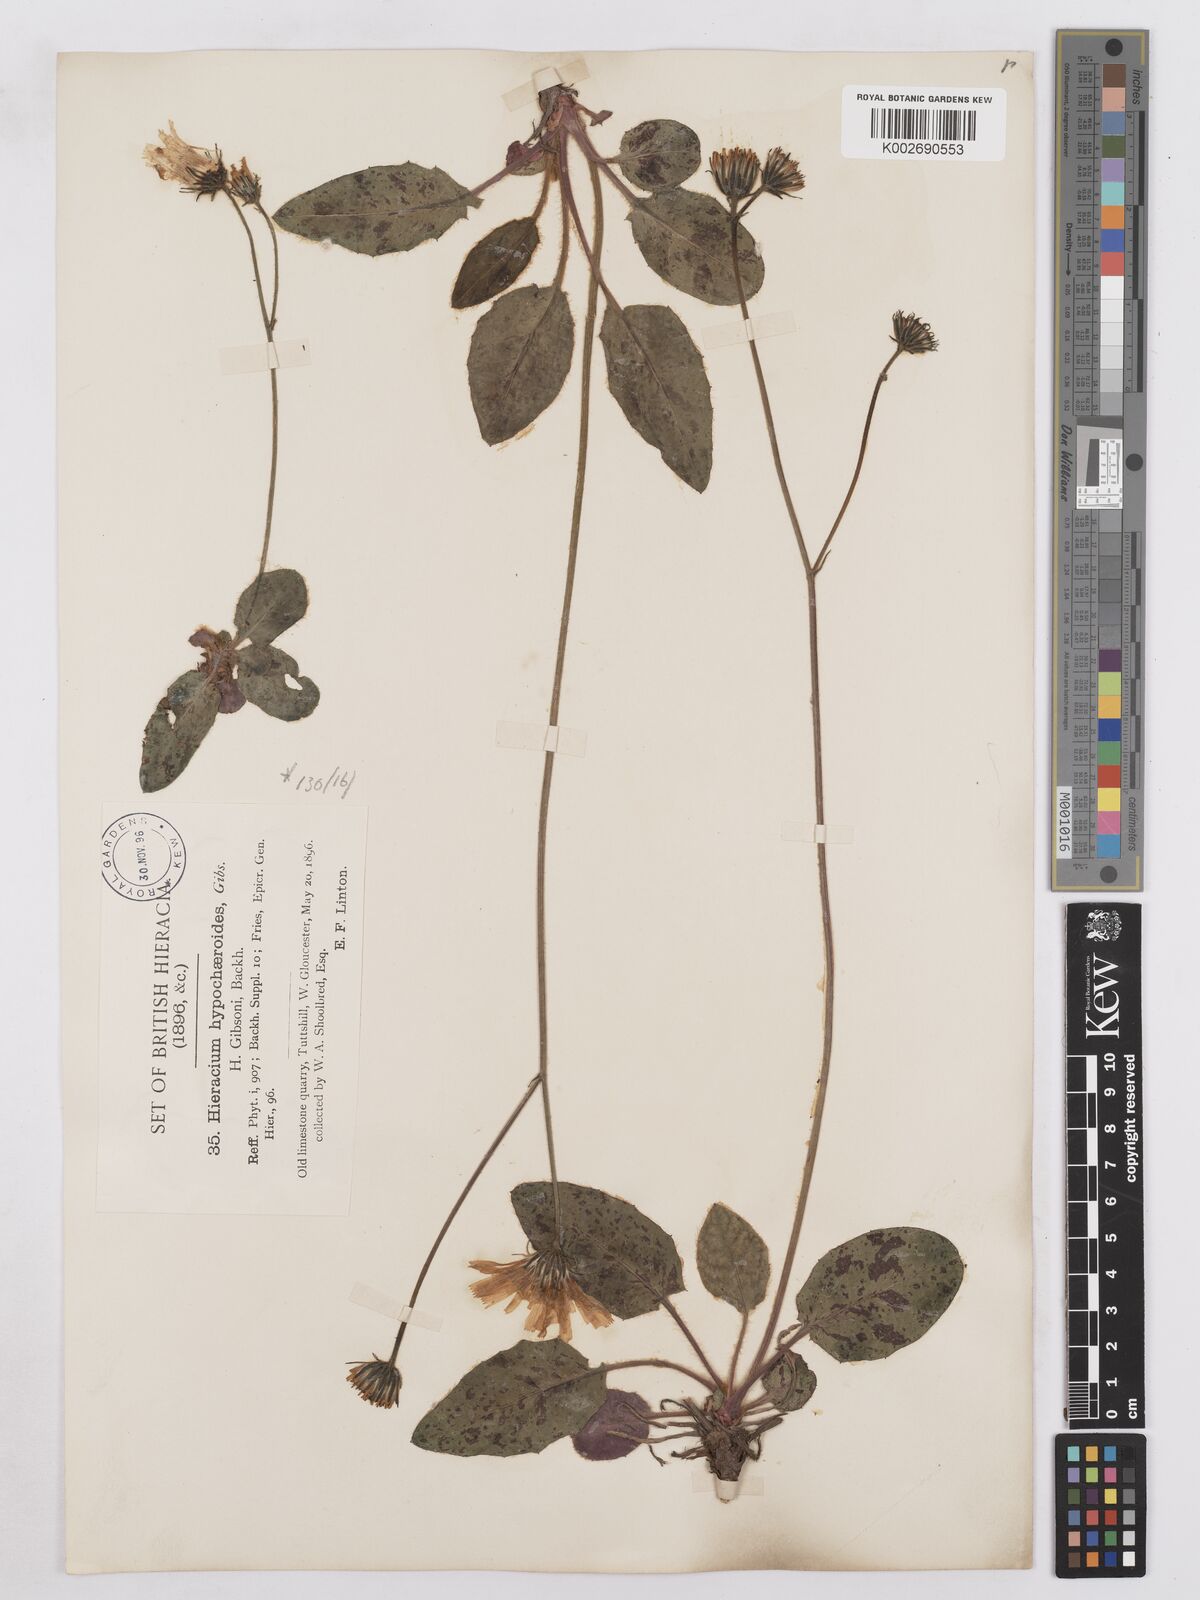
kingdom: Plantae
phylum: Tracheophyta
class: Magnoliopsida
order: Asterales
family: Asteraceae
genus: Hieracium
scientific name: Hieracium hypochoeroides
